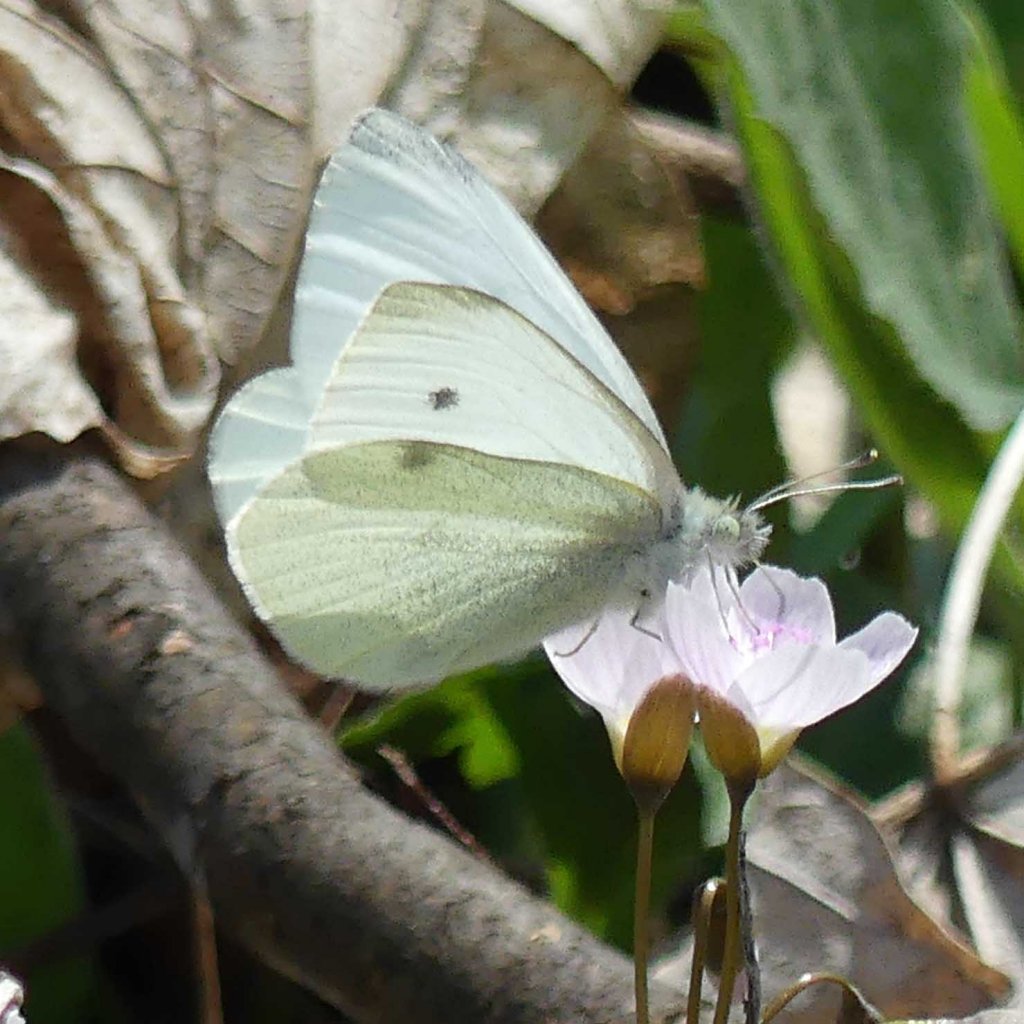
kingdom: Animalia
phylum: Arthropoda
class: Insecta
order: Lepidoptera
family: Pieridae
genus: Pieris
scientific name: Pieris rapae
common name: Cabbage White
